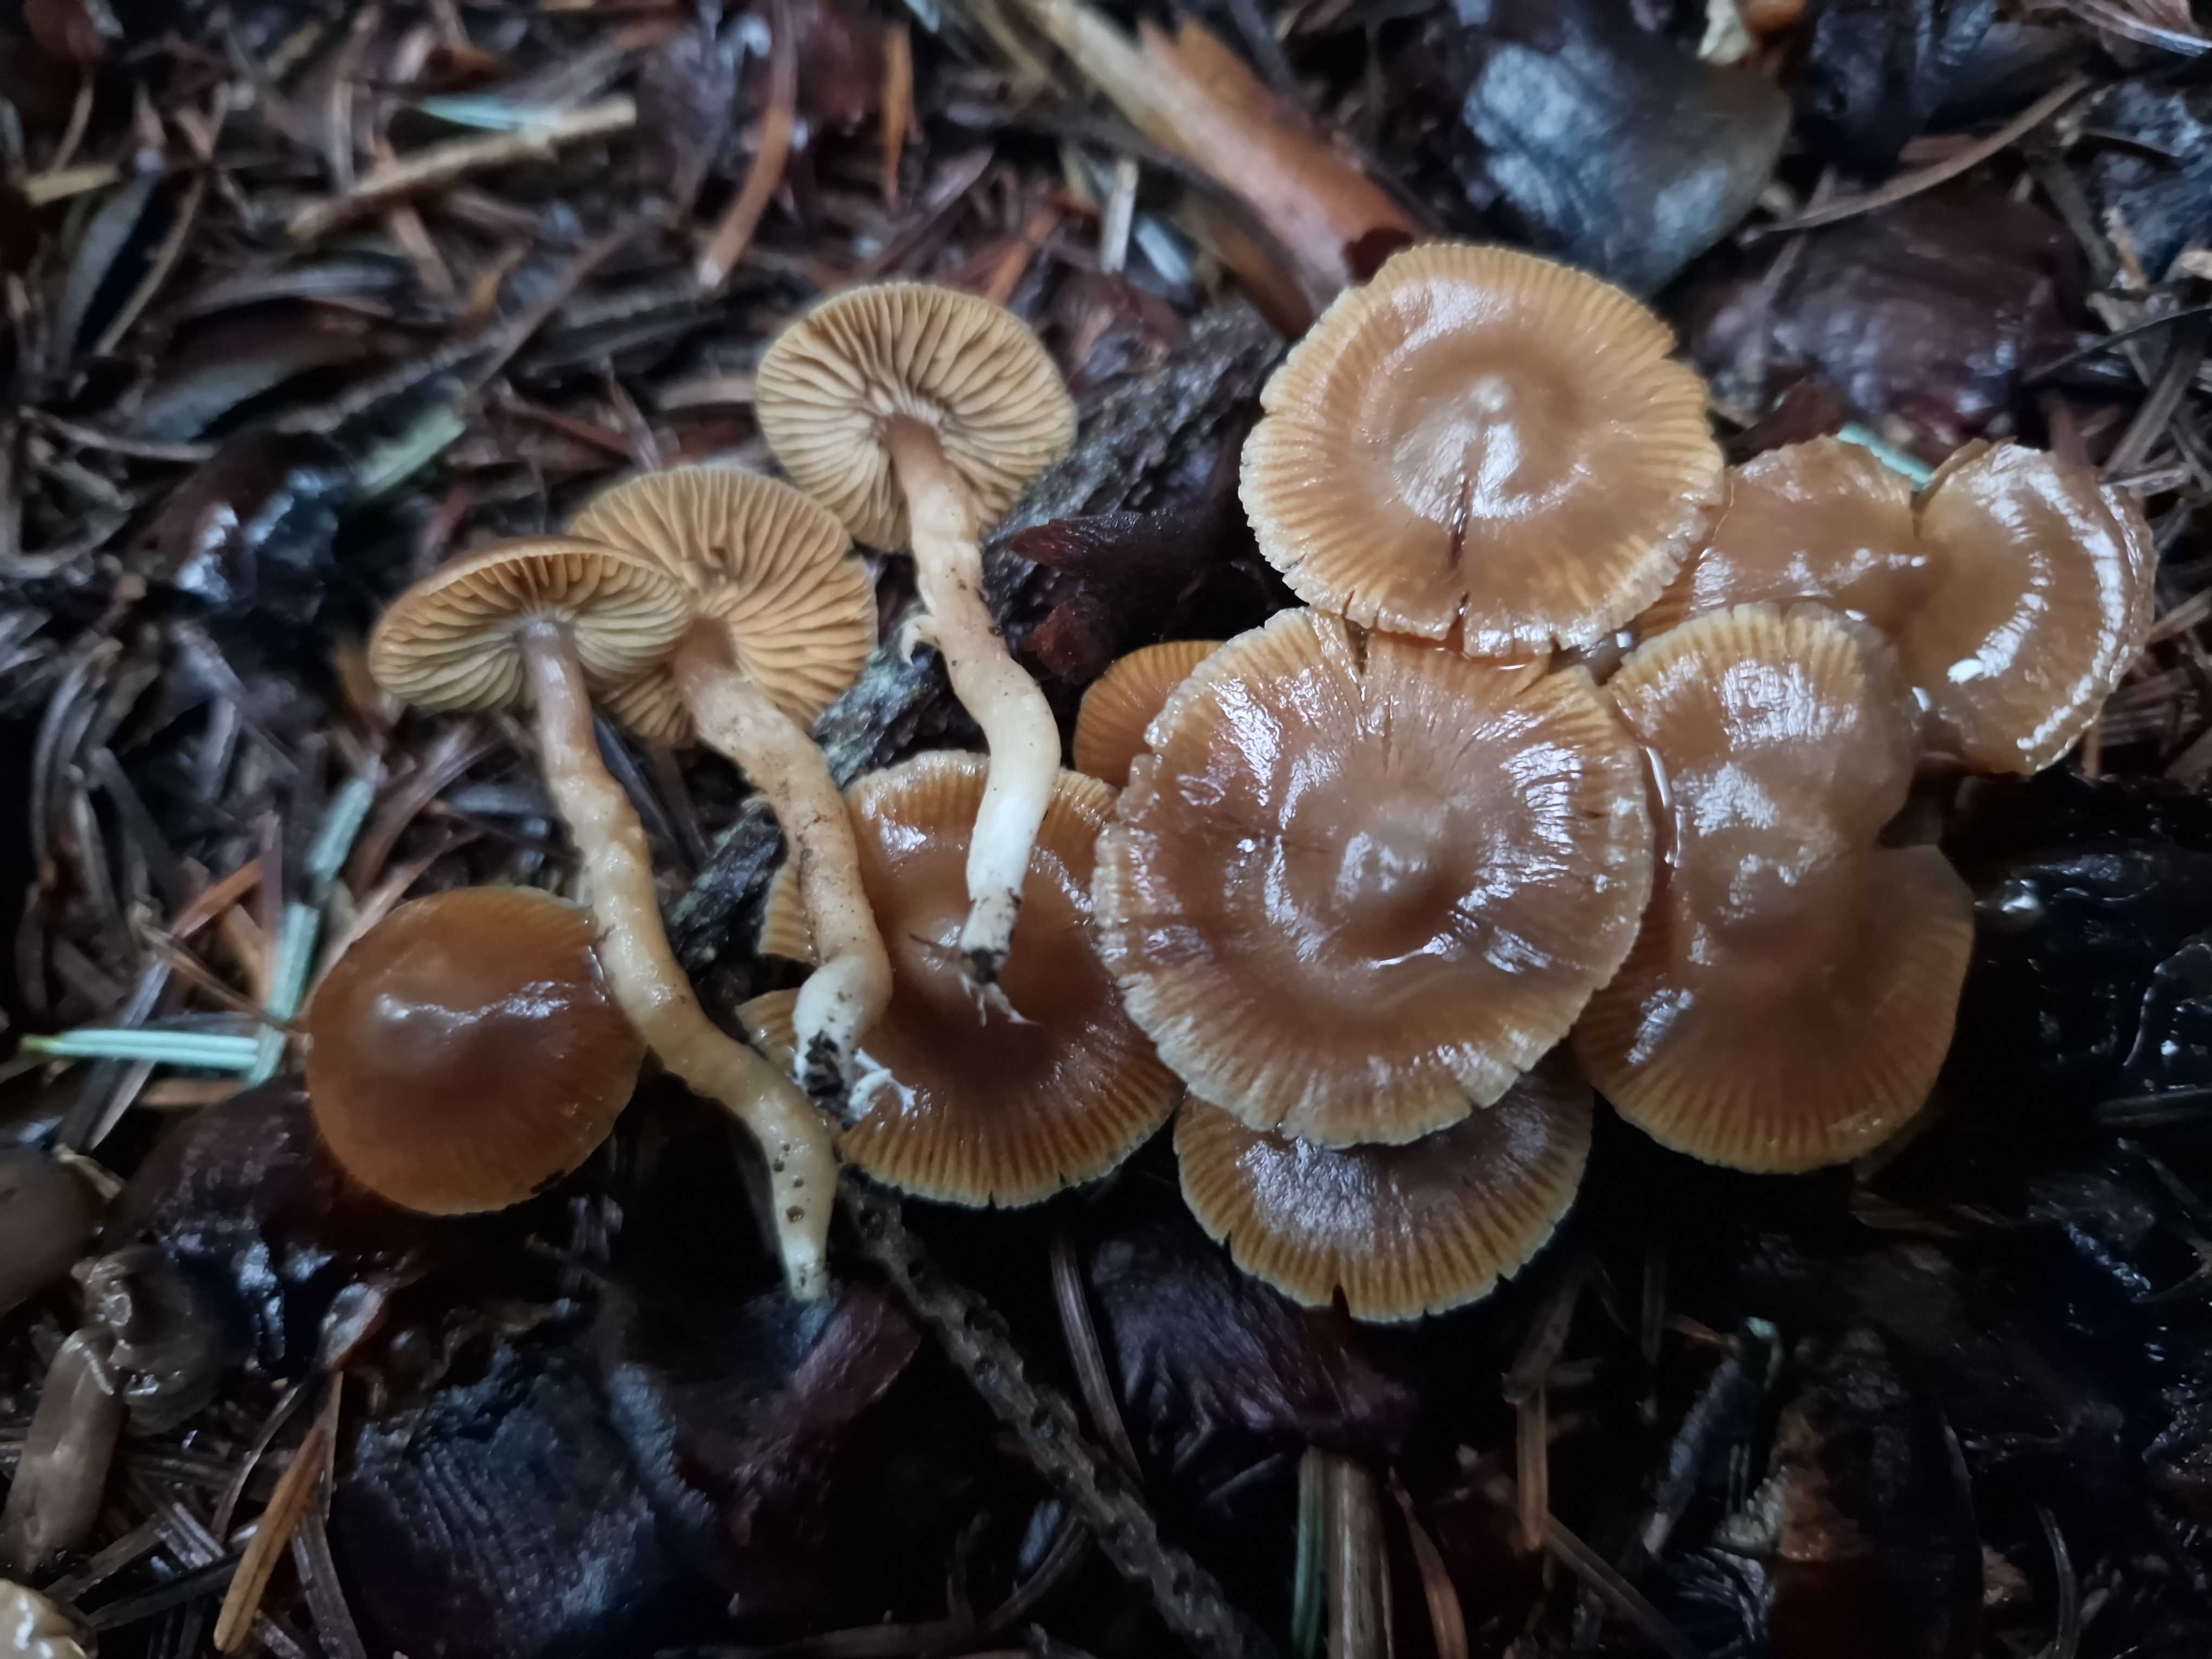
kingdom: Fungi
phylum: Basidiomycota
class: Agaricomycetes
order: Agaricales
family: Cortinariaceae
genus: Cortinarius
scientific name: Cortinarius
